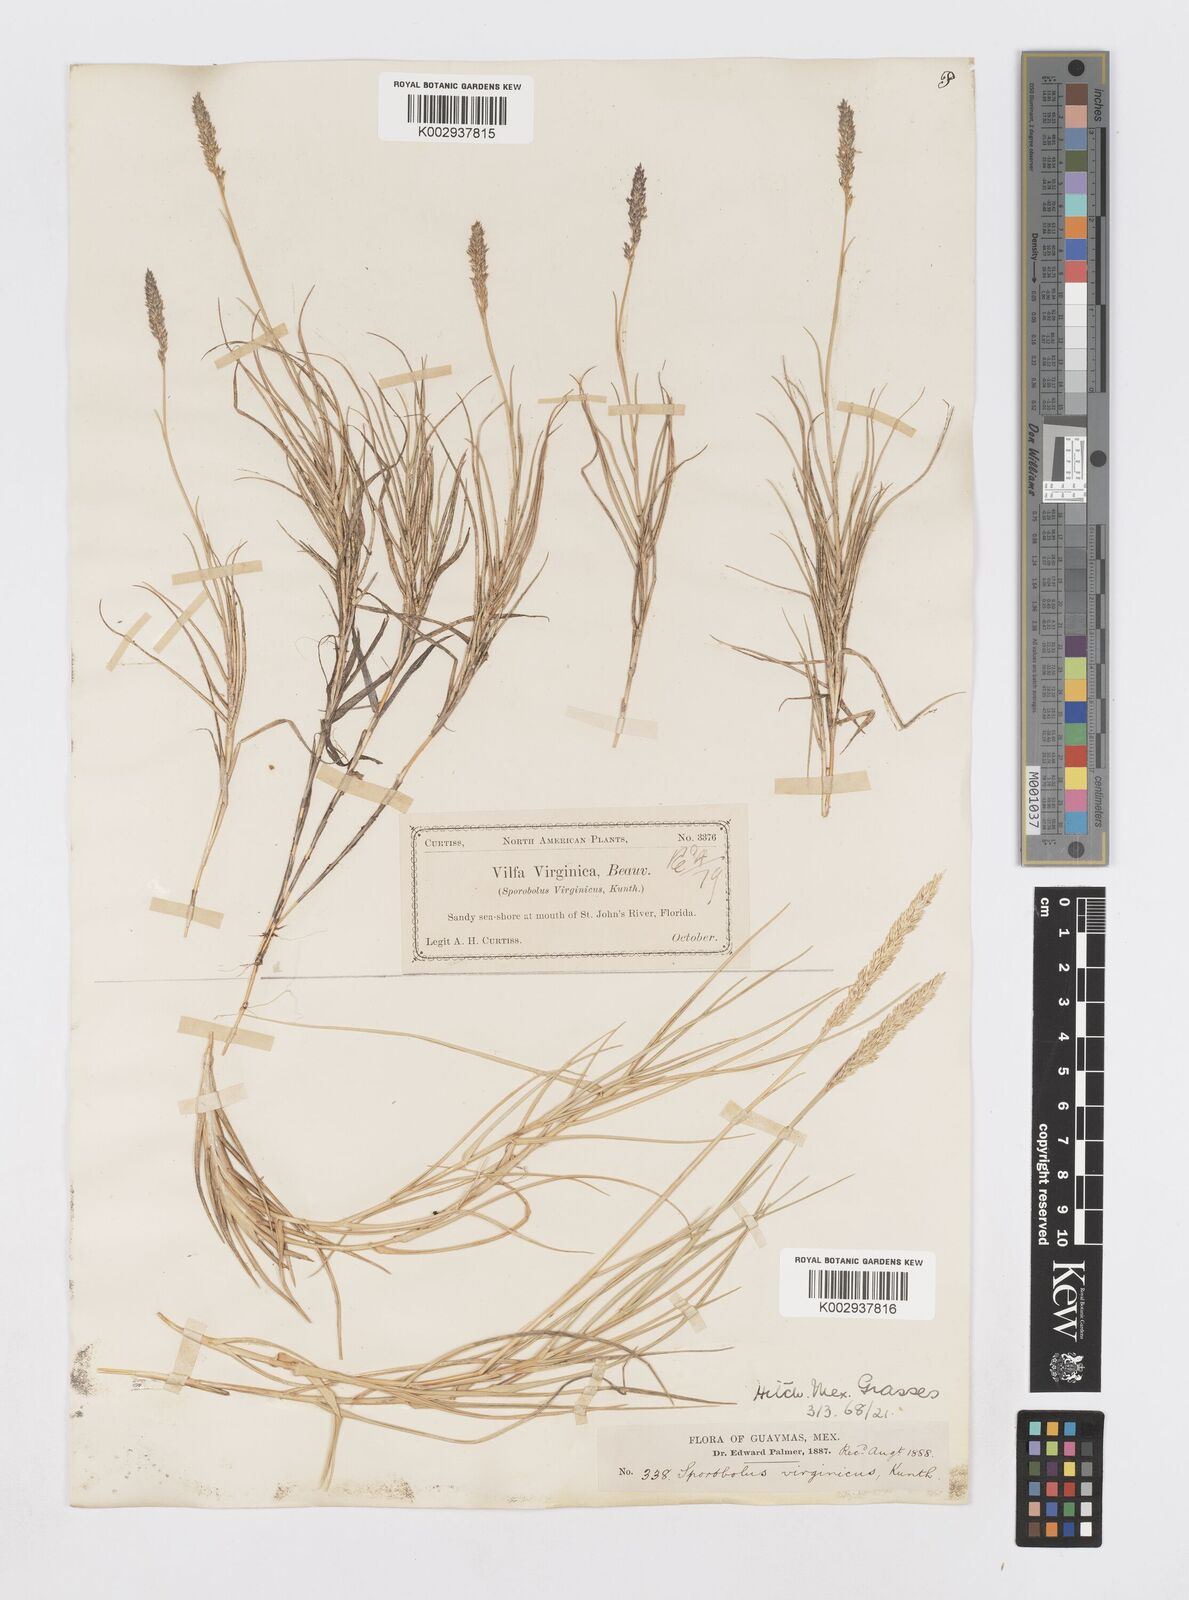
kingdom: Plantae
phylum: Tracheophyta
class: Liliopsida
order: Poales
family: Poaceae
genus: Sporobolus
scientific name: Sporobolus virginicus
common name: Beach dropseed
